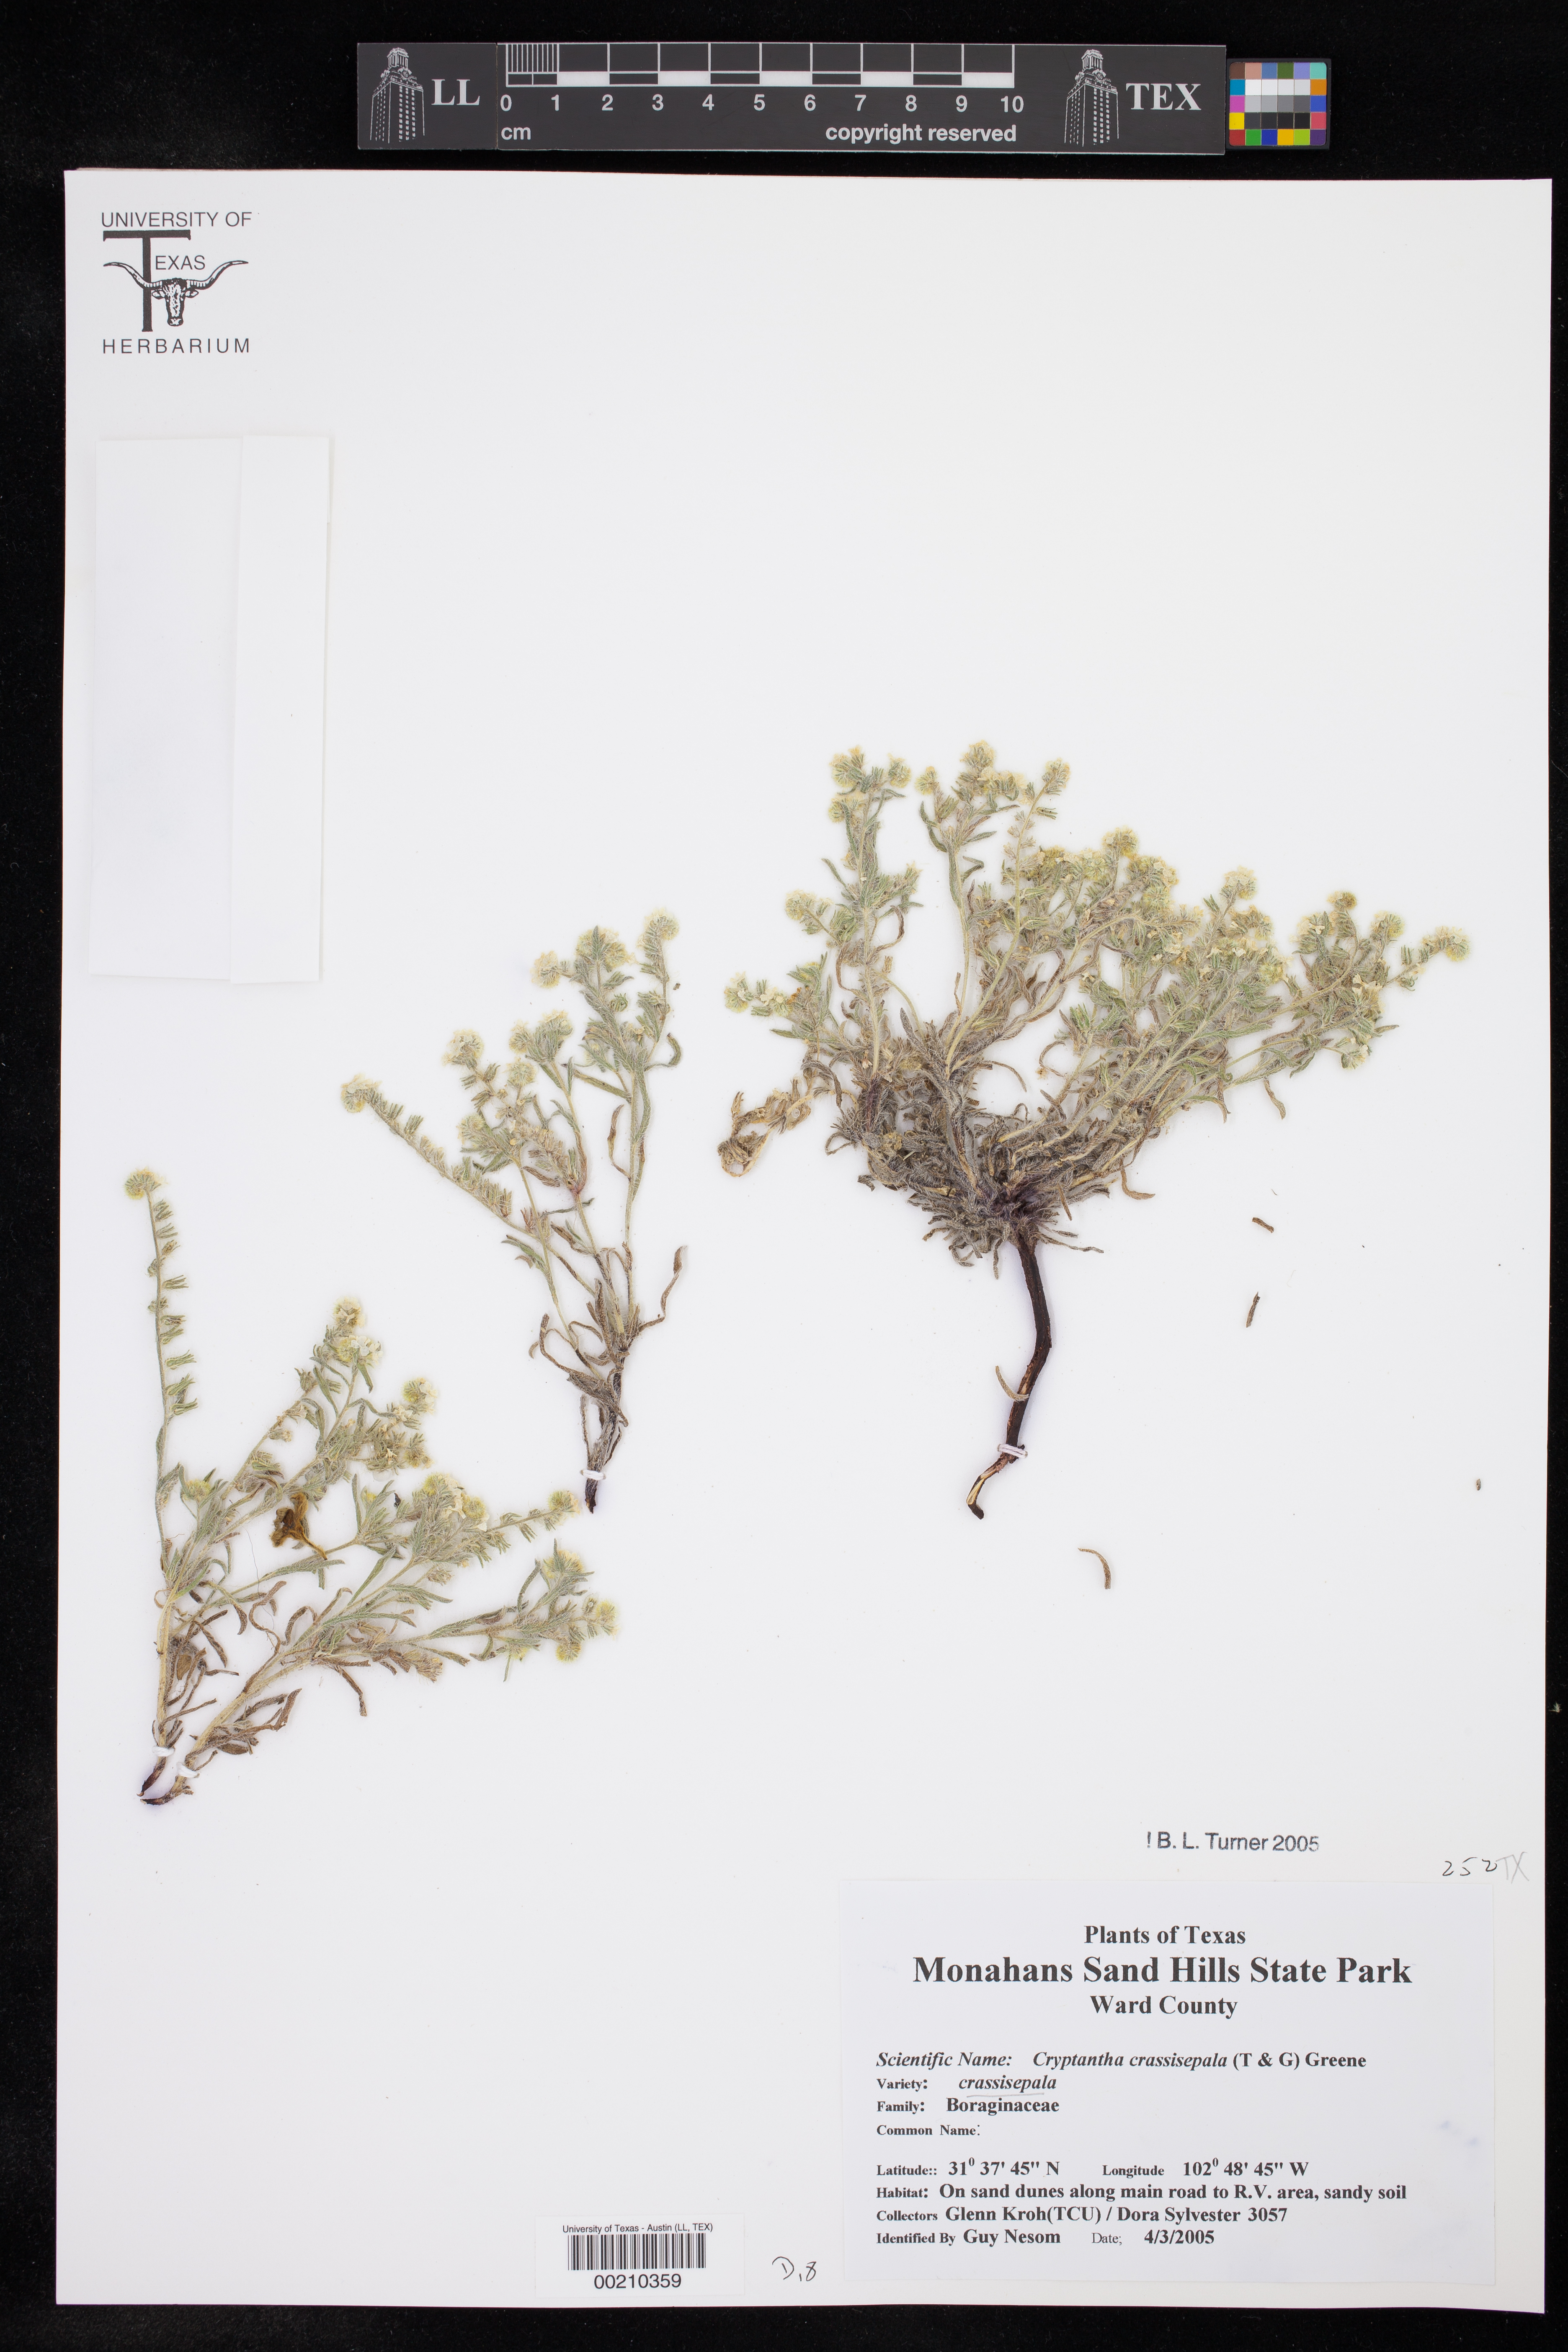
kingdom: Plantae
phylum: Tracheophyta
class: Magnoliopsida
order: Boraginales
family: Boraginaceae
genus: Cryptantha
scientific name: Cryptantha crassisepala
